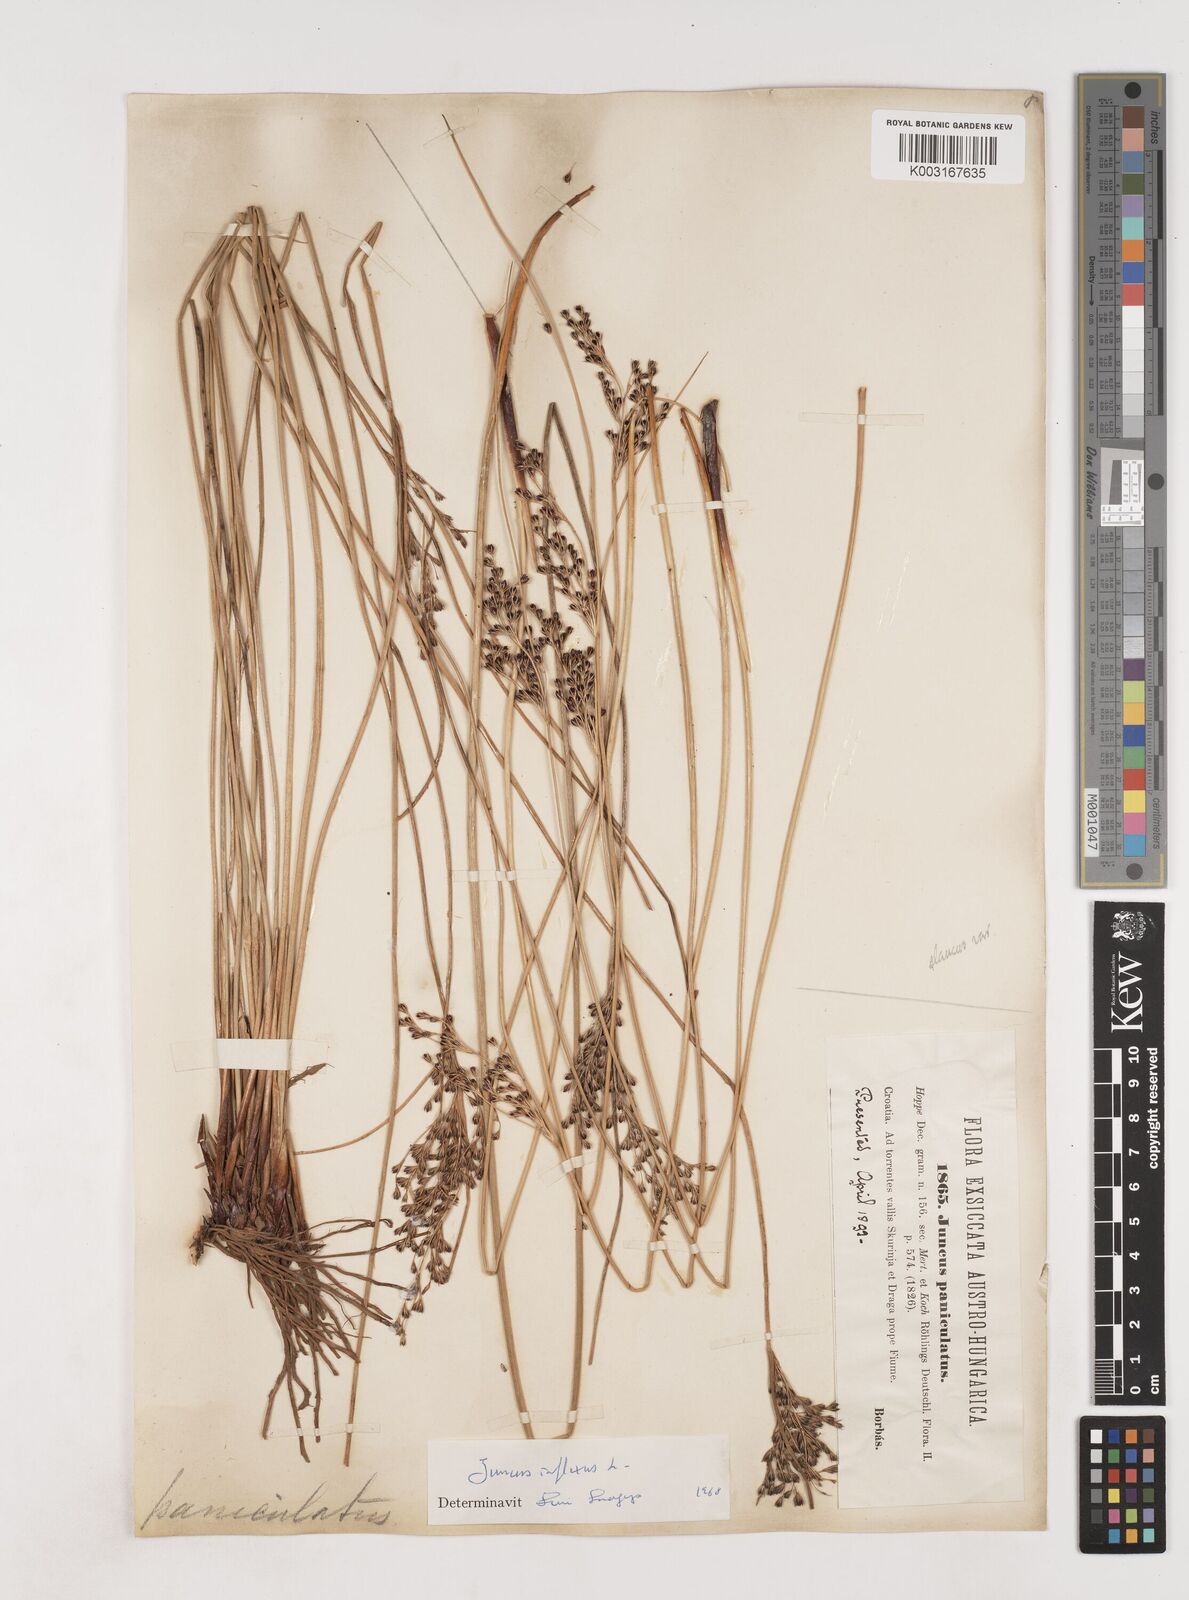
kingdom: Plantae
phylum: Tracheophyta
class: Liliopsida
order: Poales
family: Juncaceae
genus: Juncus
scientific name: Juncus inflexus
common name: Hard rush
